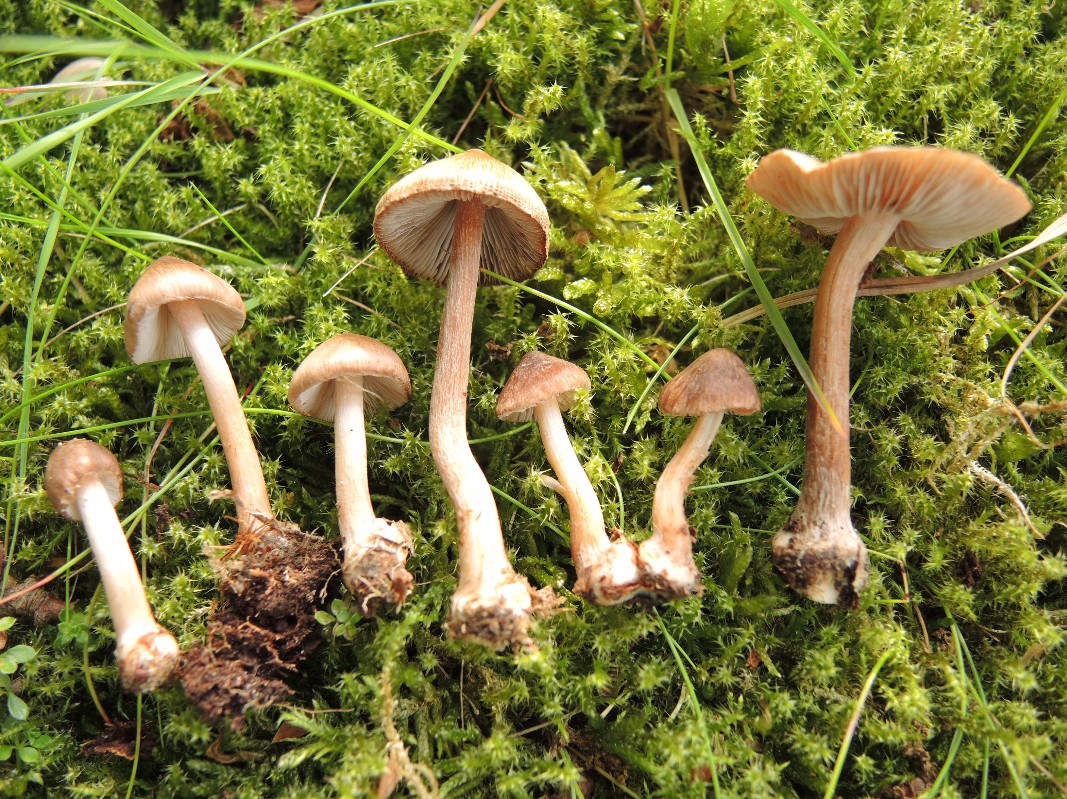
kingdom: Fungi
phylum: Basidiomycota
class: Agaricomycetes
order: Agaricales
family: Inocybaceae
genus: Inocybe
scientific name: Inocybe asterospora
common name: stjernesporet trævlhat
